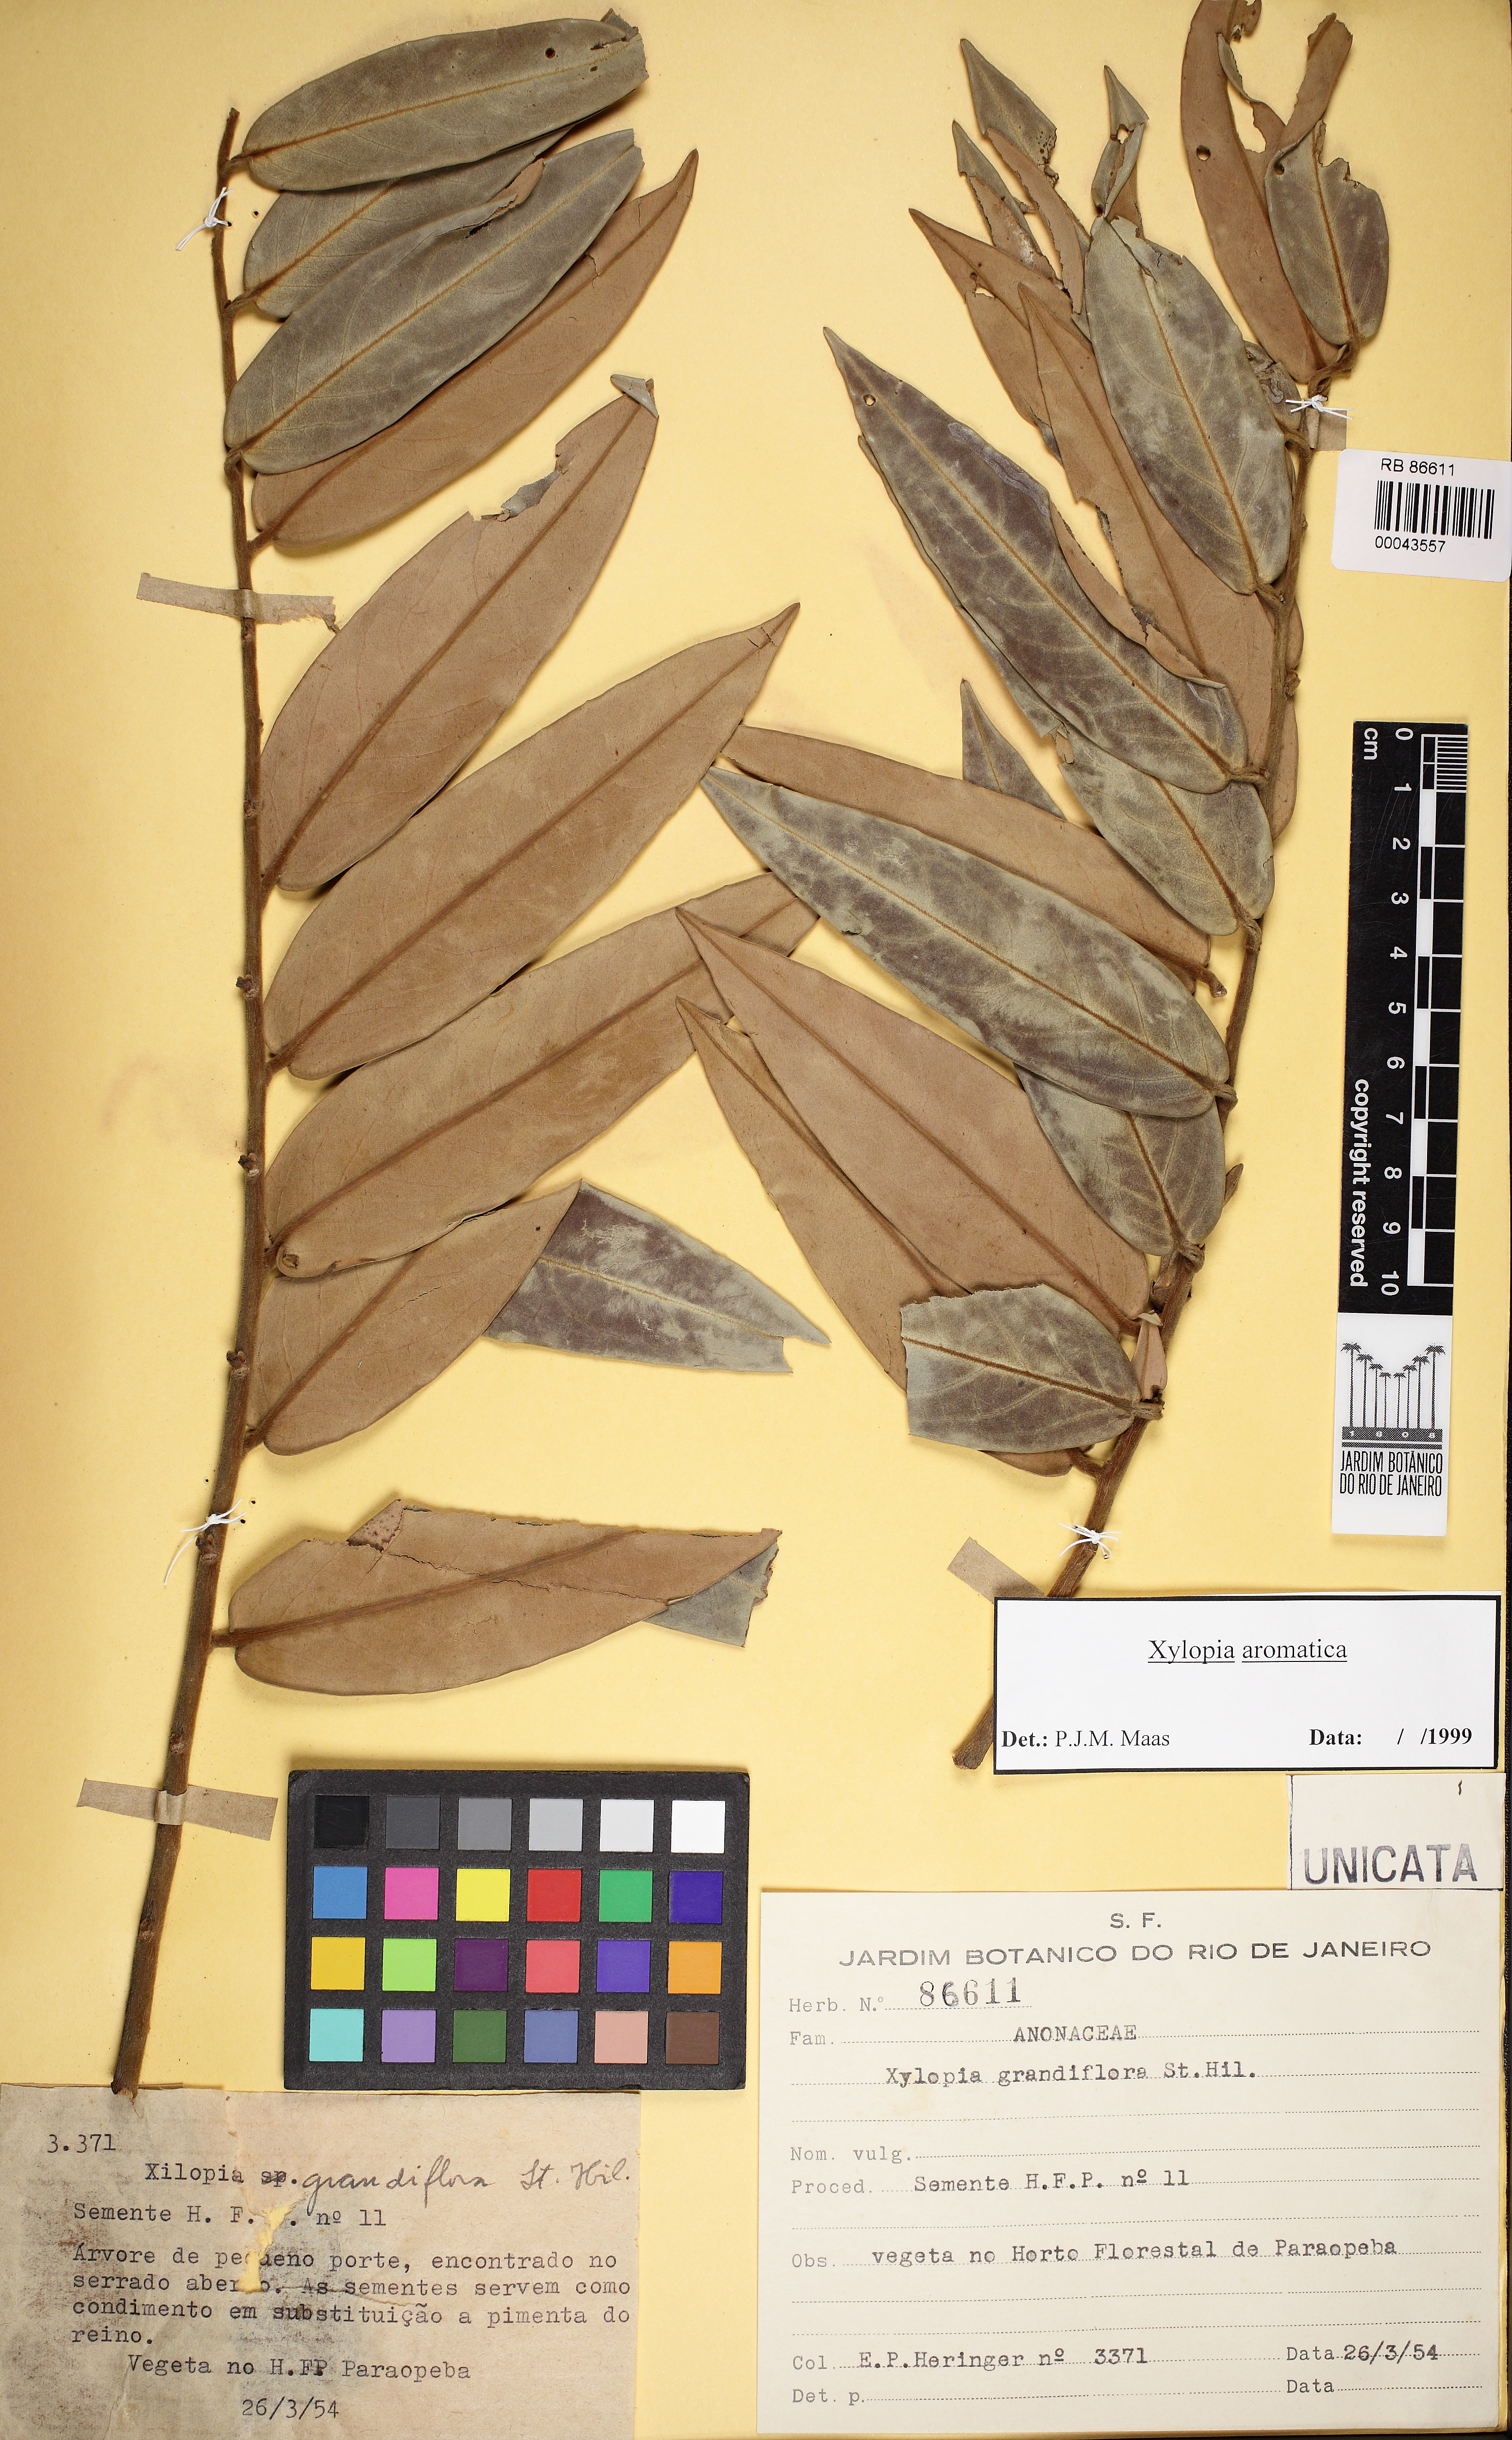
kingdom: Plantae
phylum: Tracheophyta
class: Magnoliopsida
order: Magnoliales
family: Annonaceae
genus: Xylopia
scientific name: Xylopia aromatica
